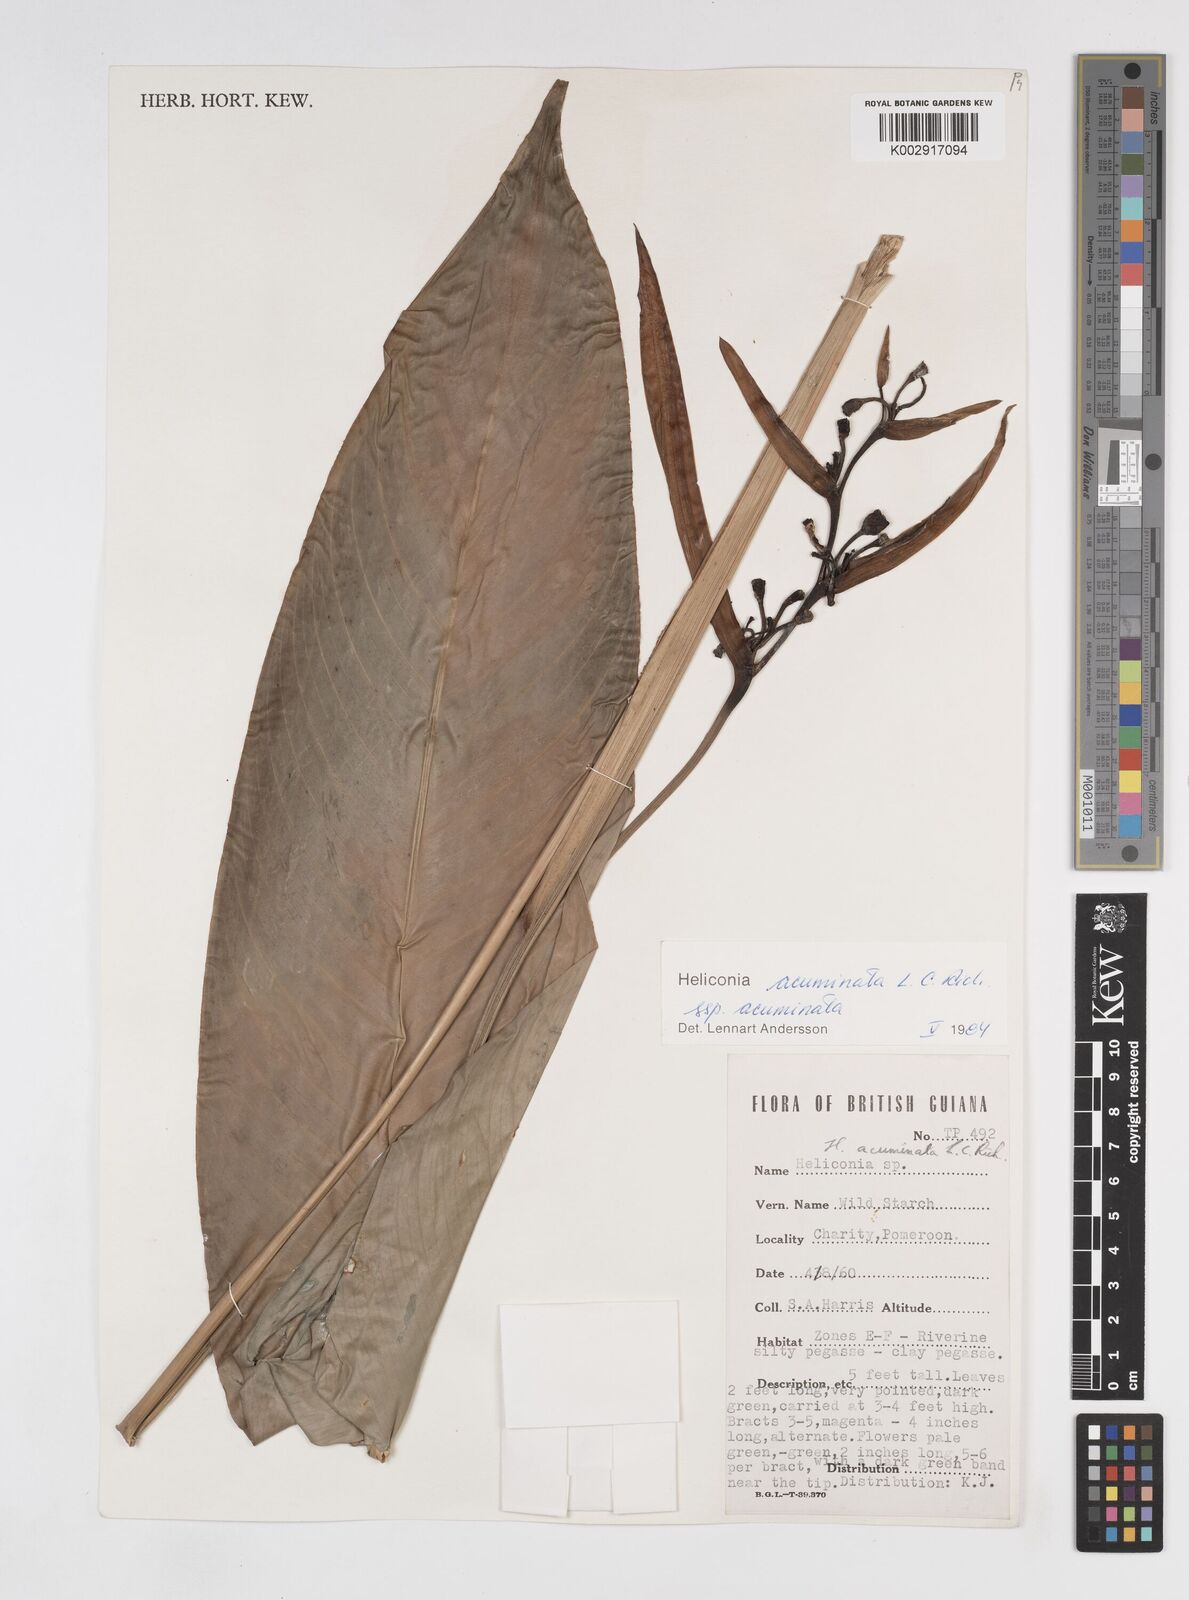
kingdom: Plantae
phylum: Tracheophyta
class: Liliopsida
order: Zingiberales
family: Heliconiaceae
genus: Heliconia
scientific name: Heliconia acuminata
